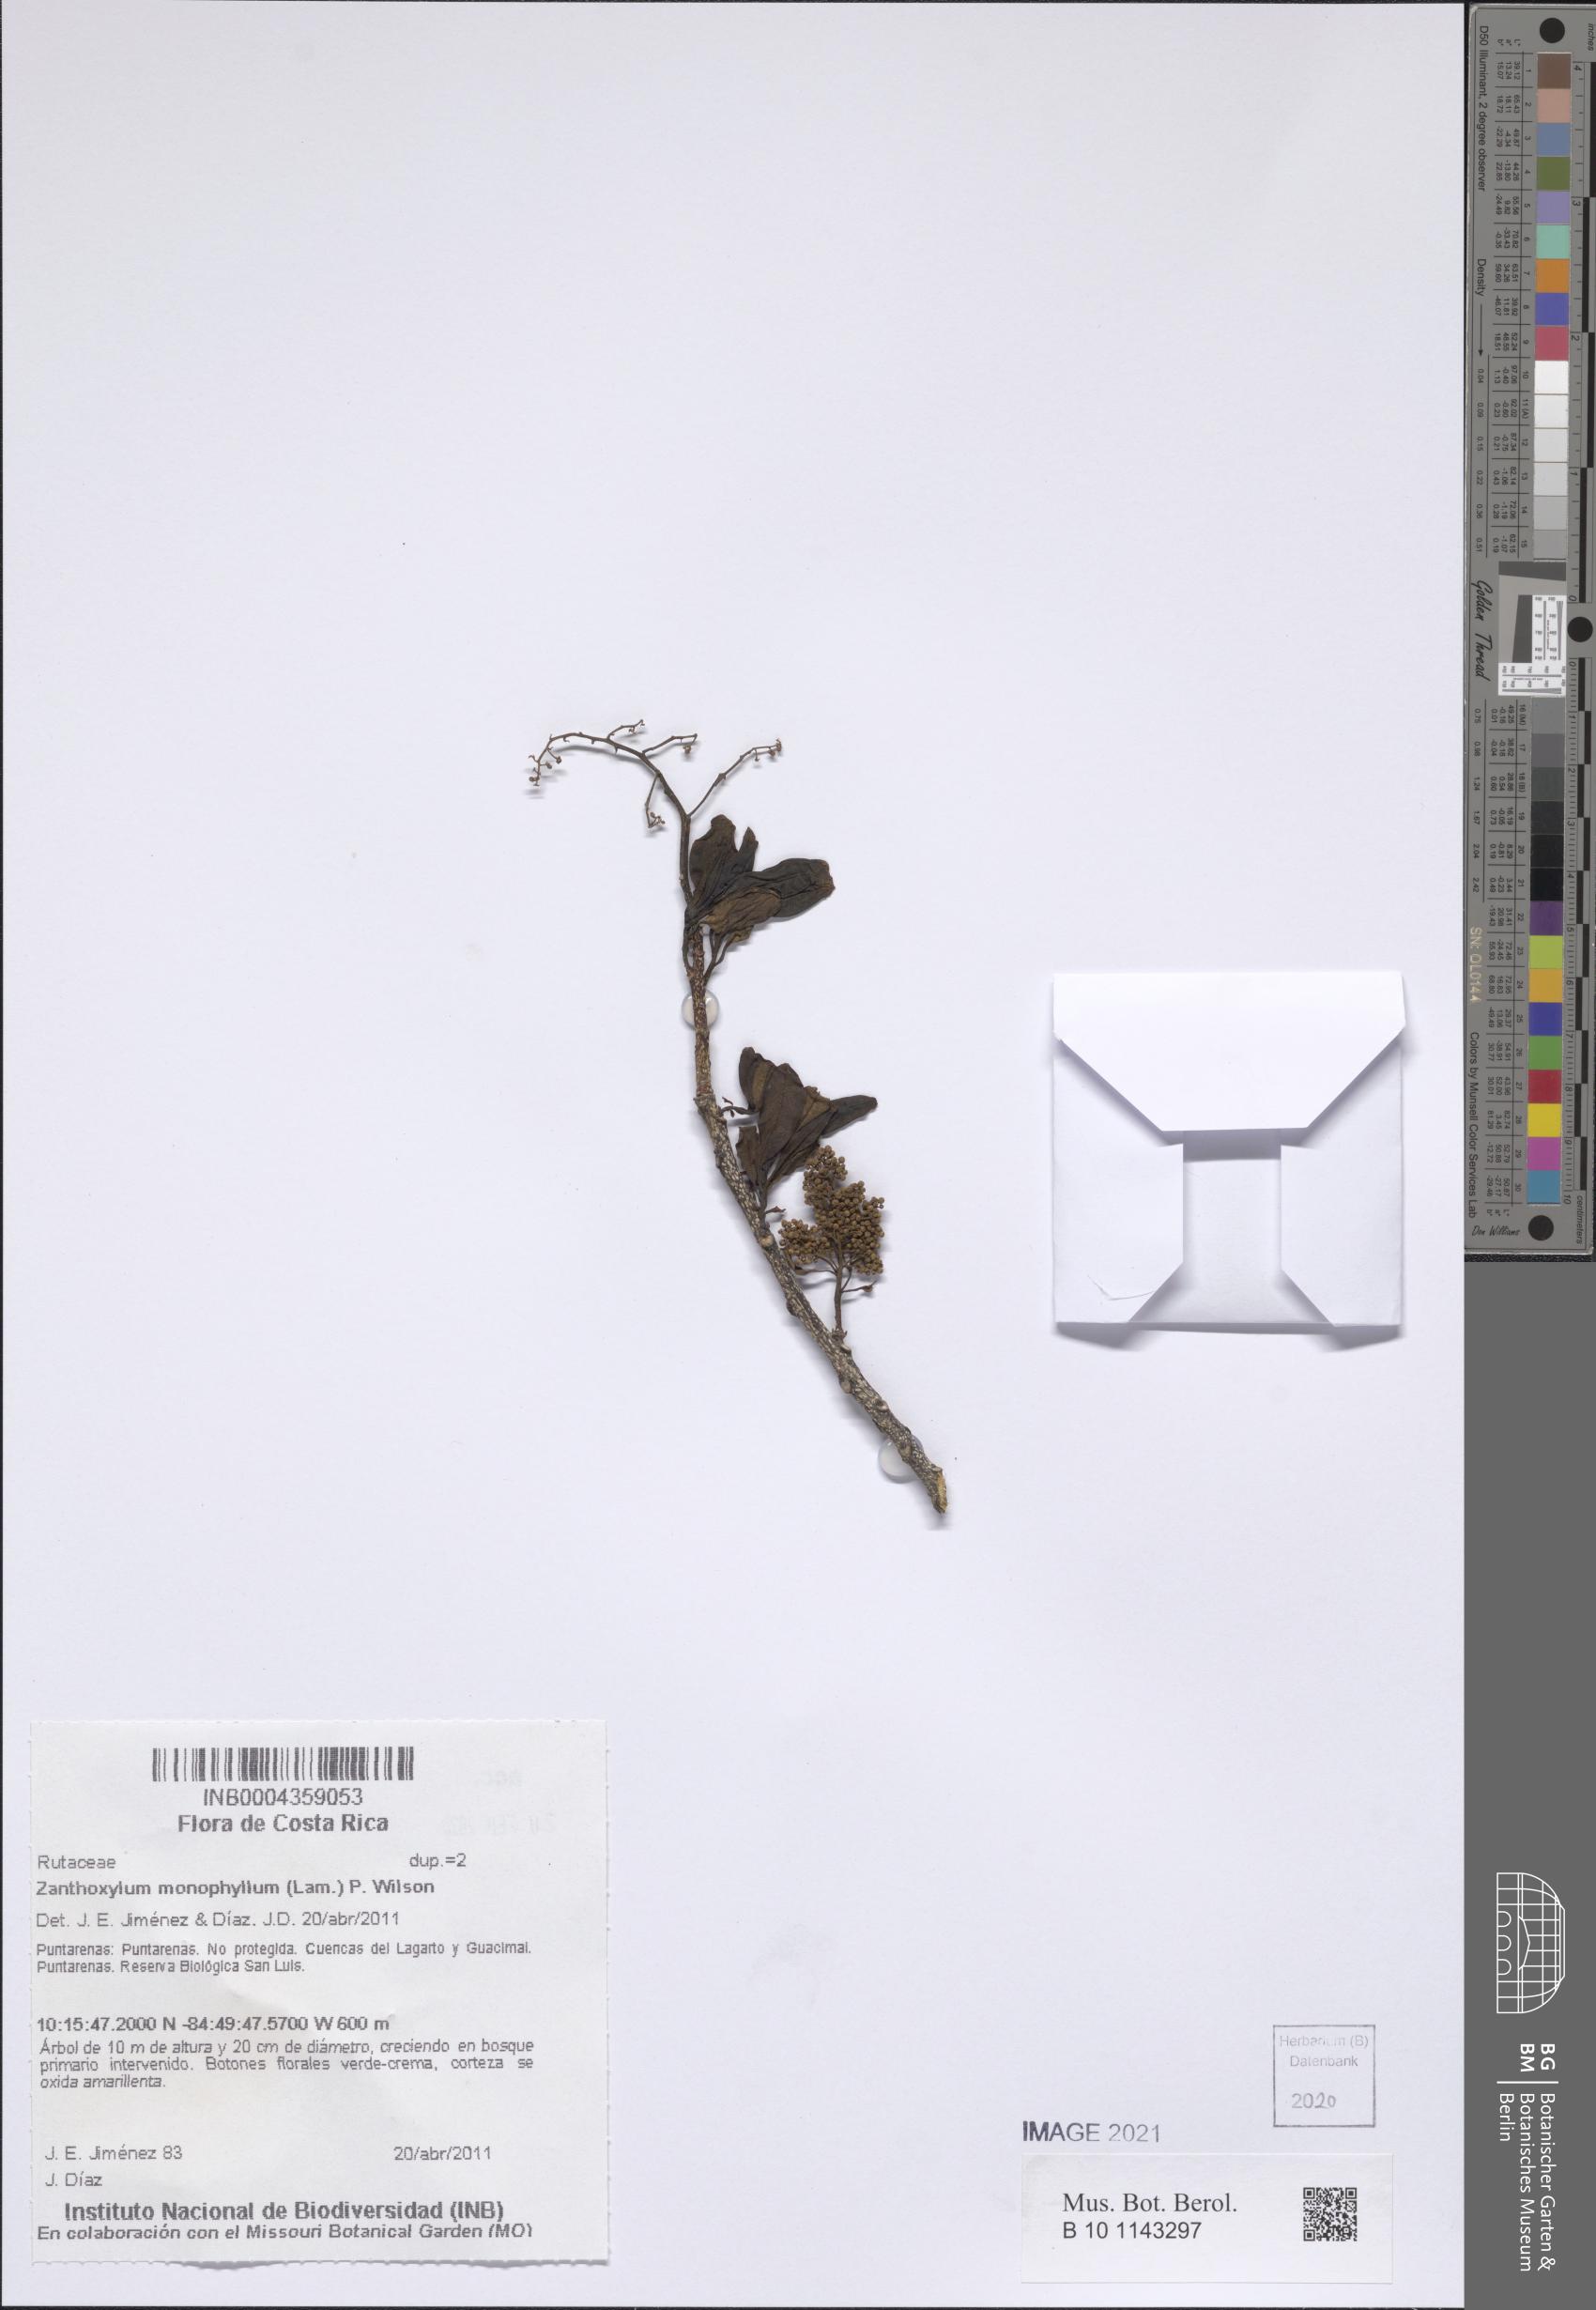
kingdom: Plantae
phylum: Tracheophyta
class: Magnoliopsida
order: Sapindales
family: Rutaceae
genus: Zanthoxylum
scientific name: Zanthoxylum schreberi
